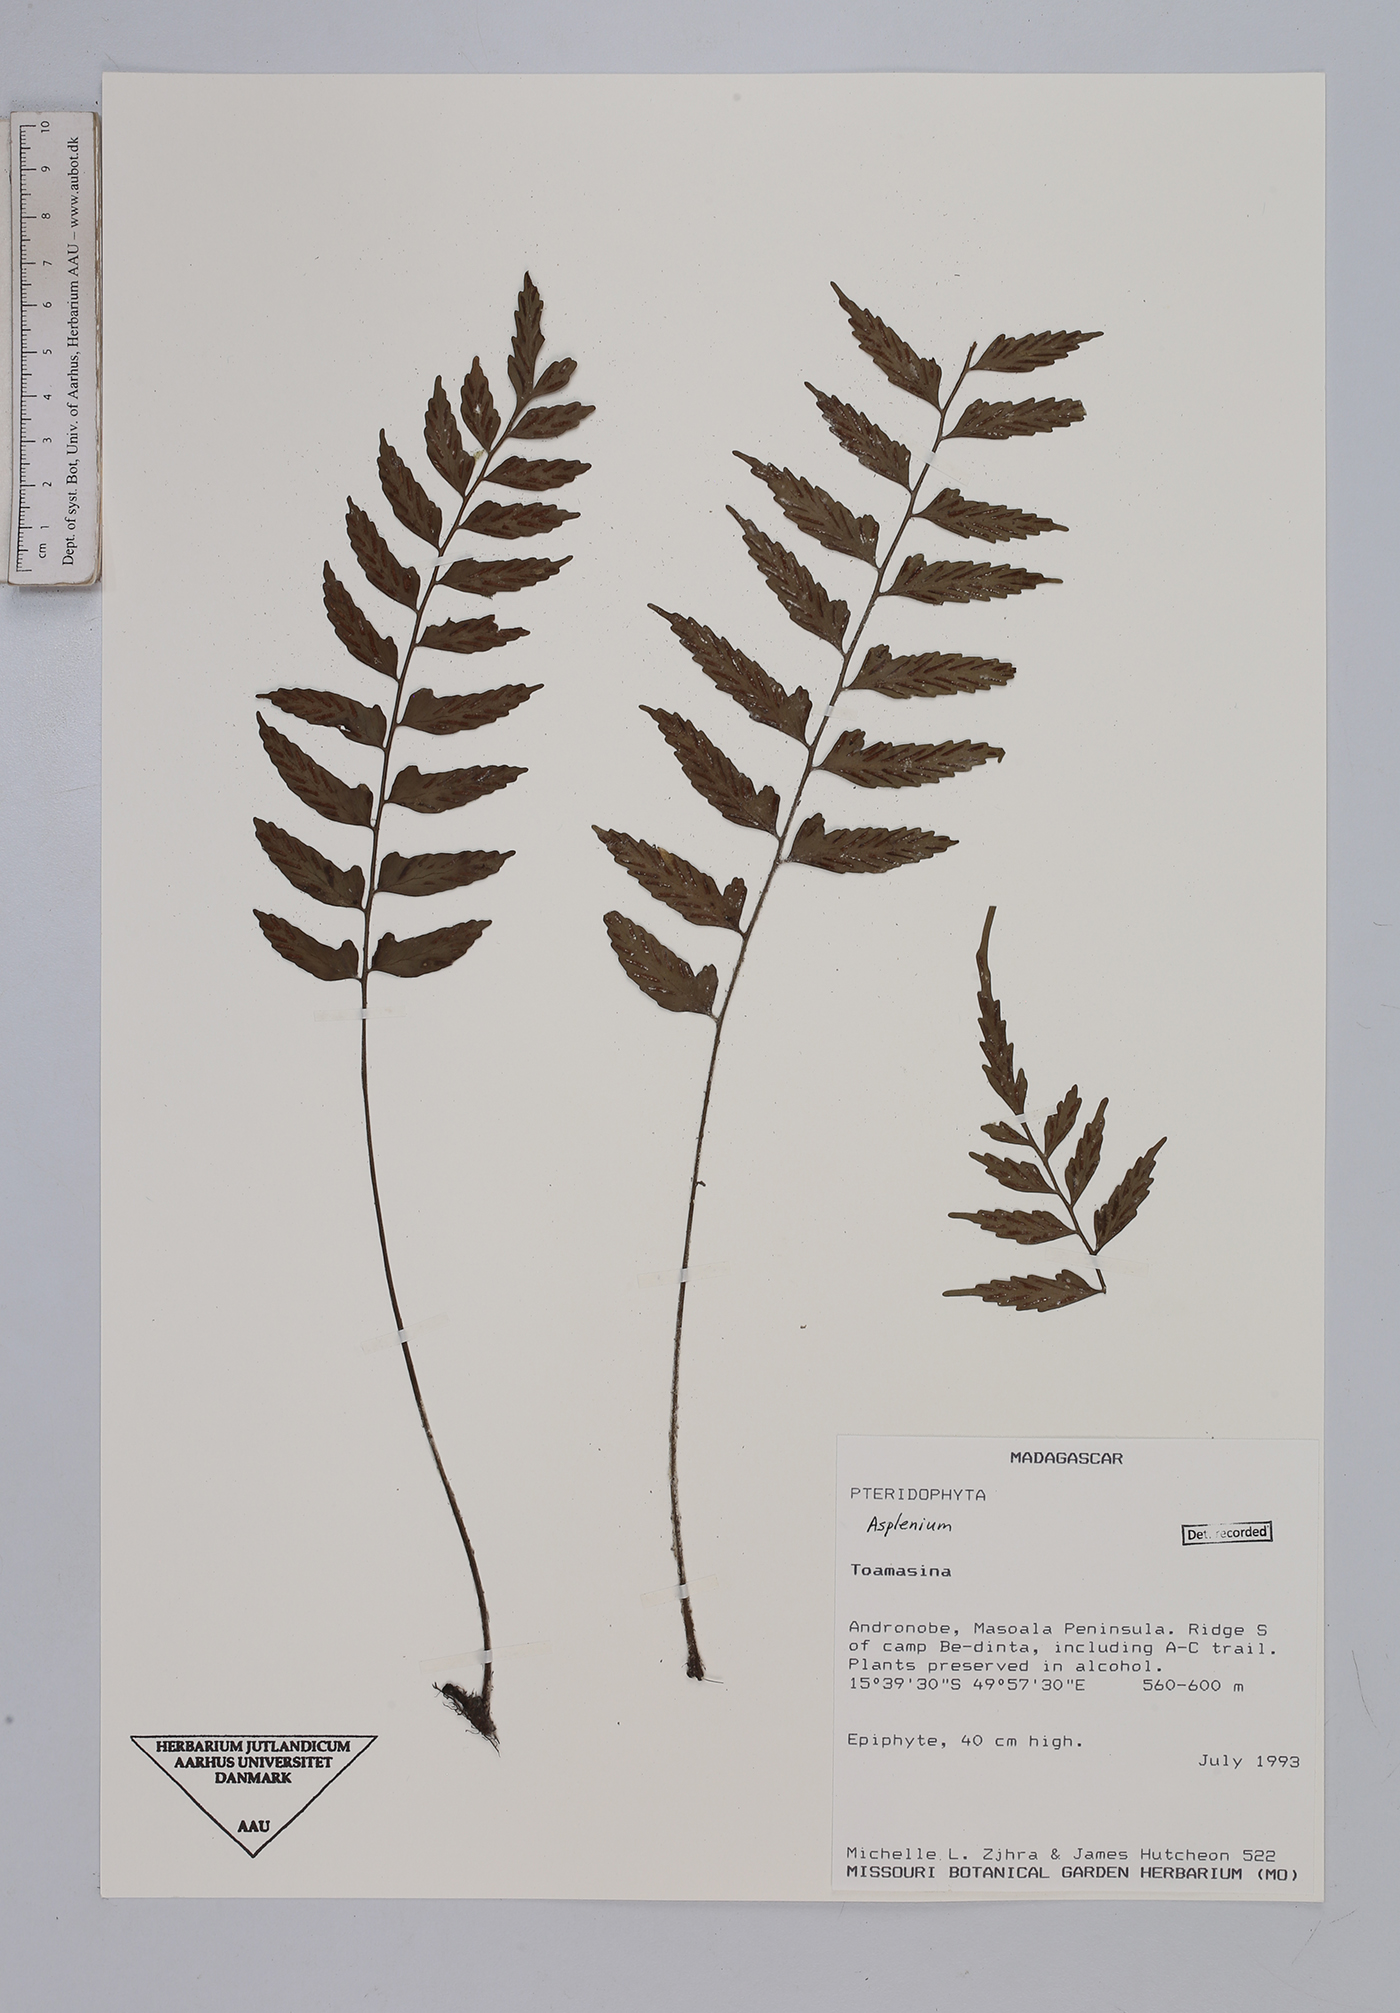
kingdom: Plantae
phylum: Tracheophyta
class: Polypodiopsida
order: Polypodiales
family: Aspleniaceae
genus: Asplenium
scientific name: Asplenium
